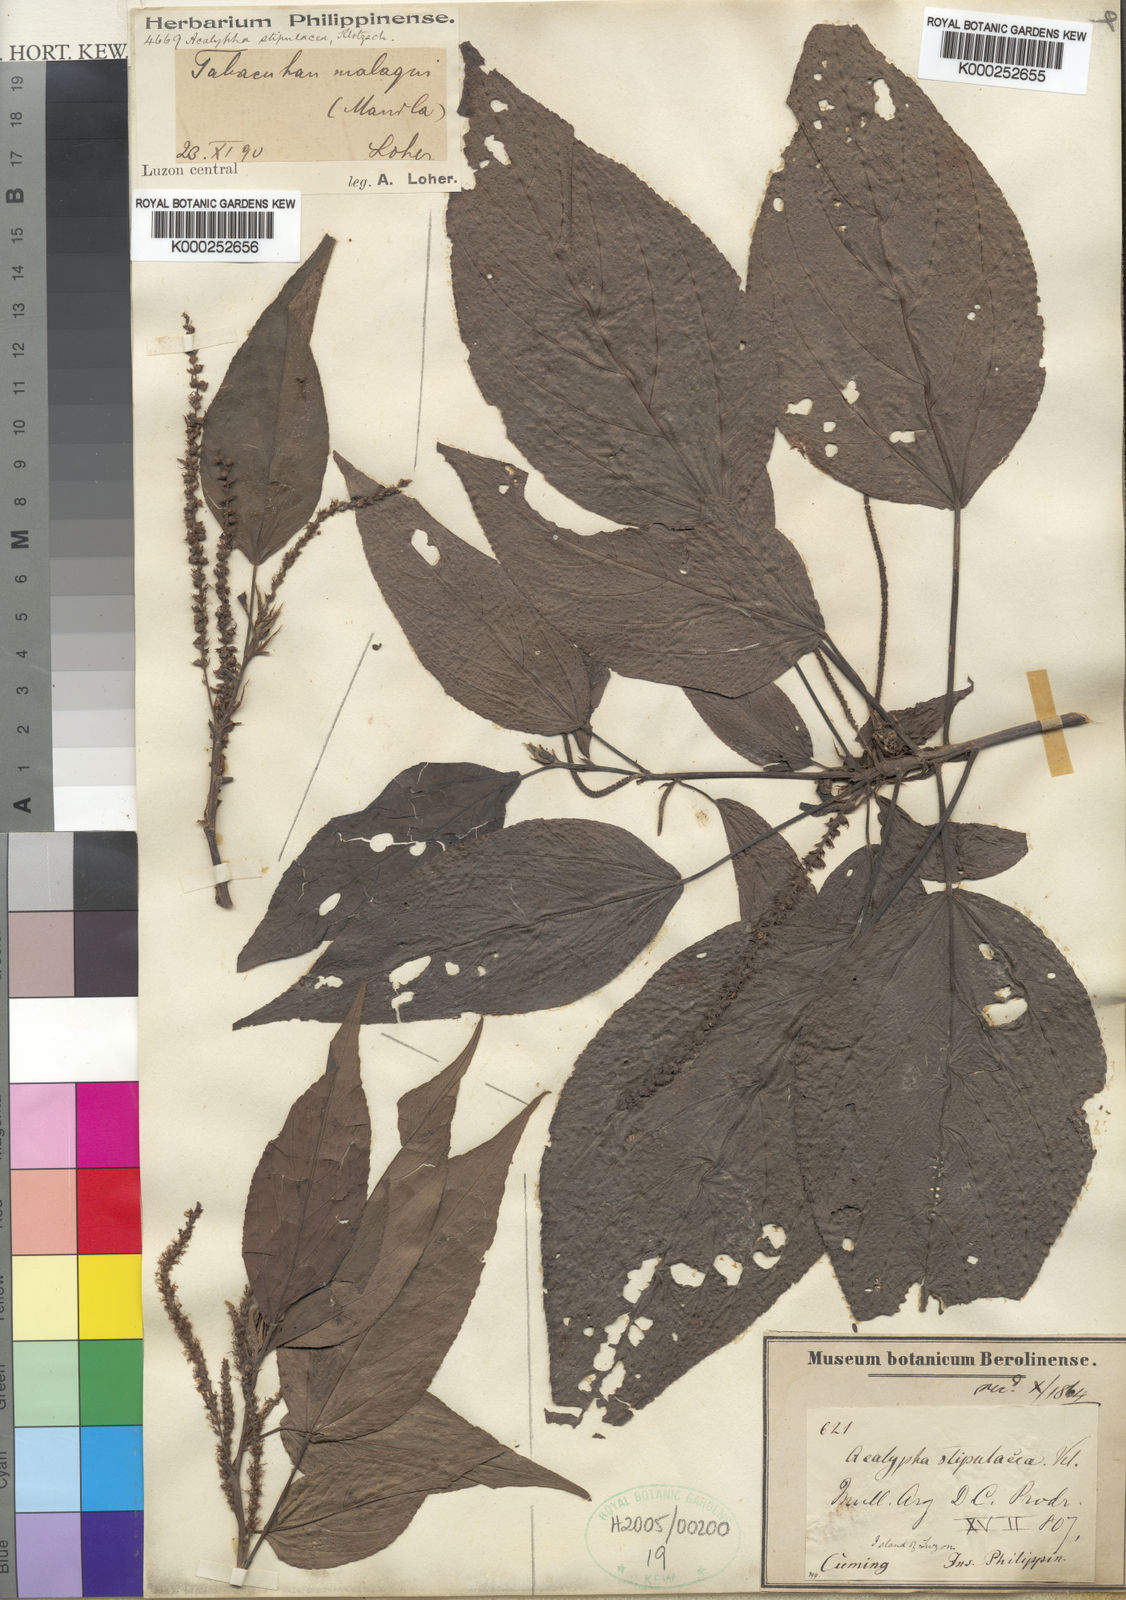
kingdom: Plantae
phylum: Tracheophyta
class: Magnoliopsida
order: Malpighiales
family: Euphorbiaceae
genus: Acalypha
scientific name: Acalypha amentacea
